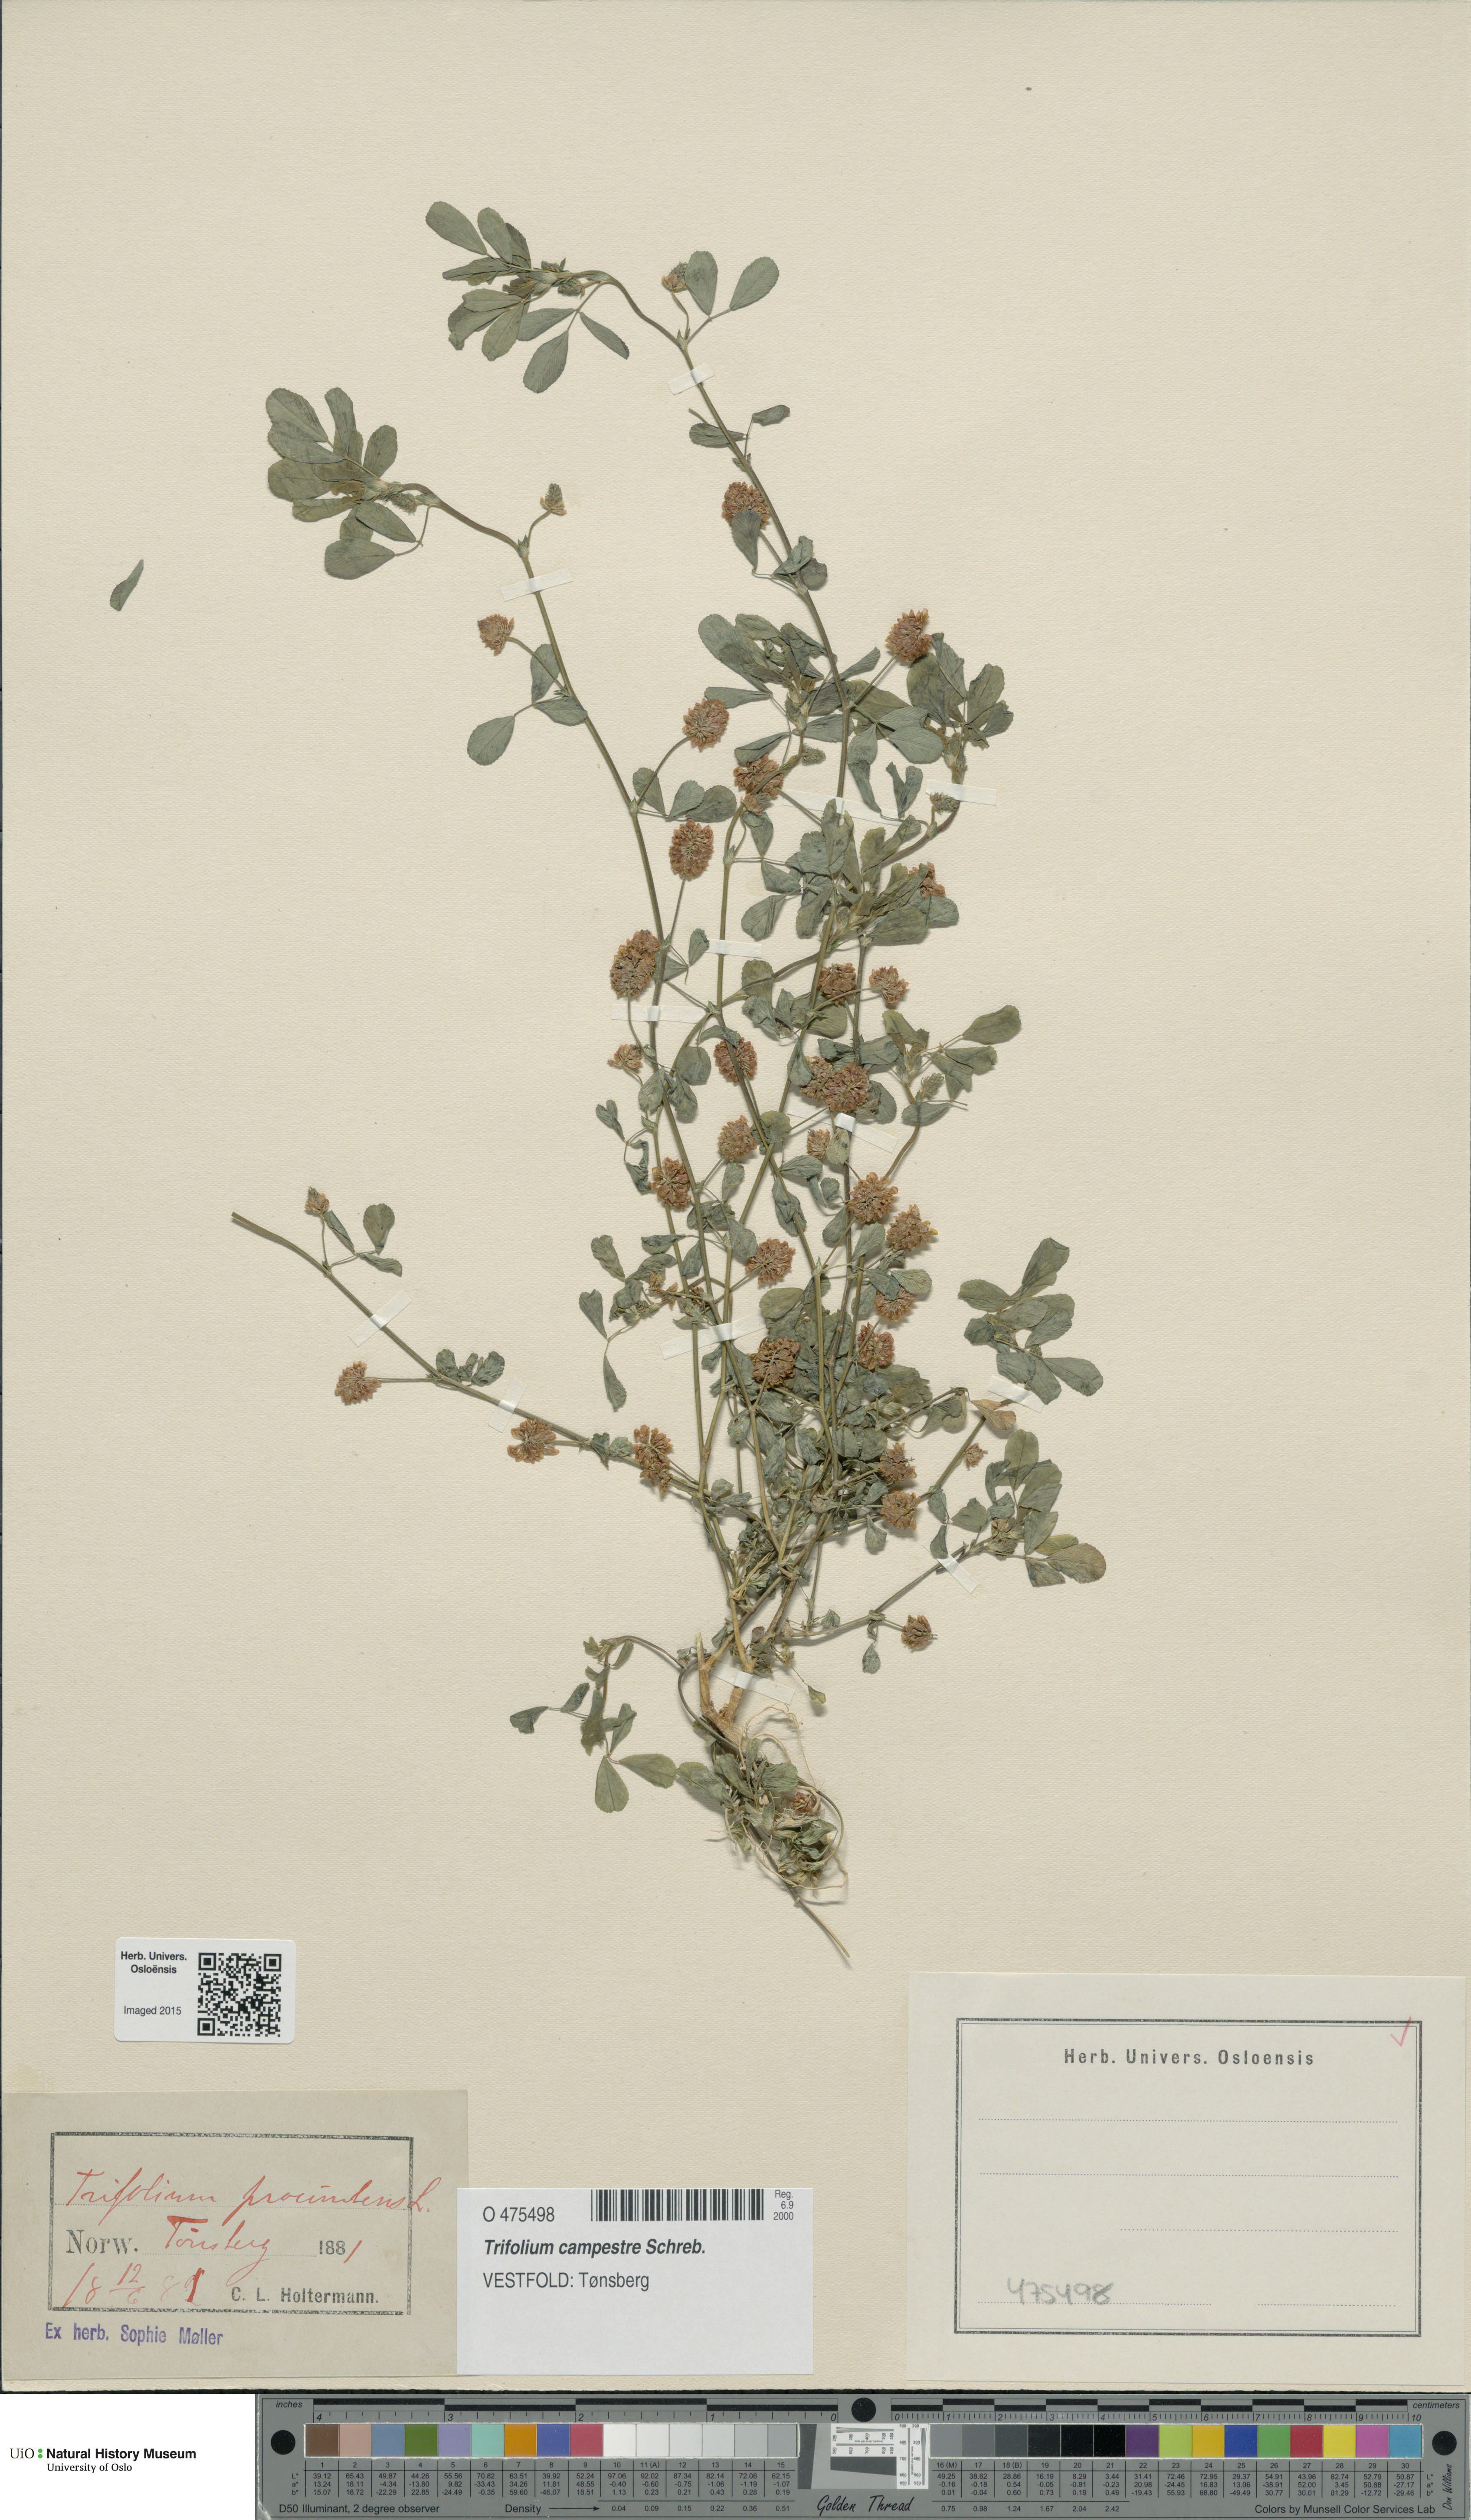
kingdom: Plantae
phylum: Tracheophyta
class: Magnoliopsida
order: Fabales
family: Fabaceae
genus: Trifolium
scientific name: Trifolium campestre
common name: Field clover
